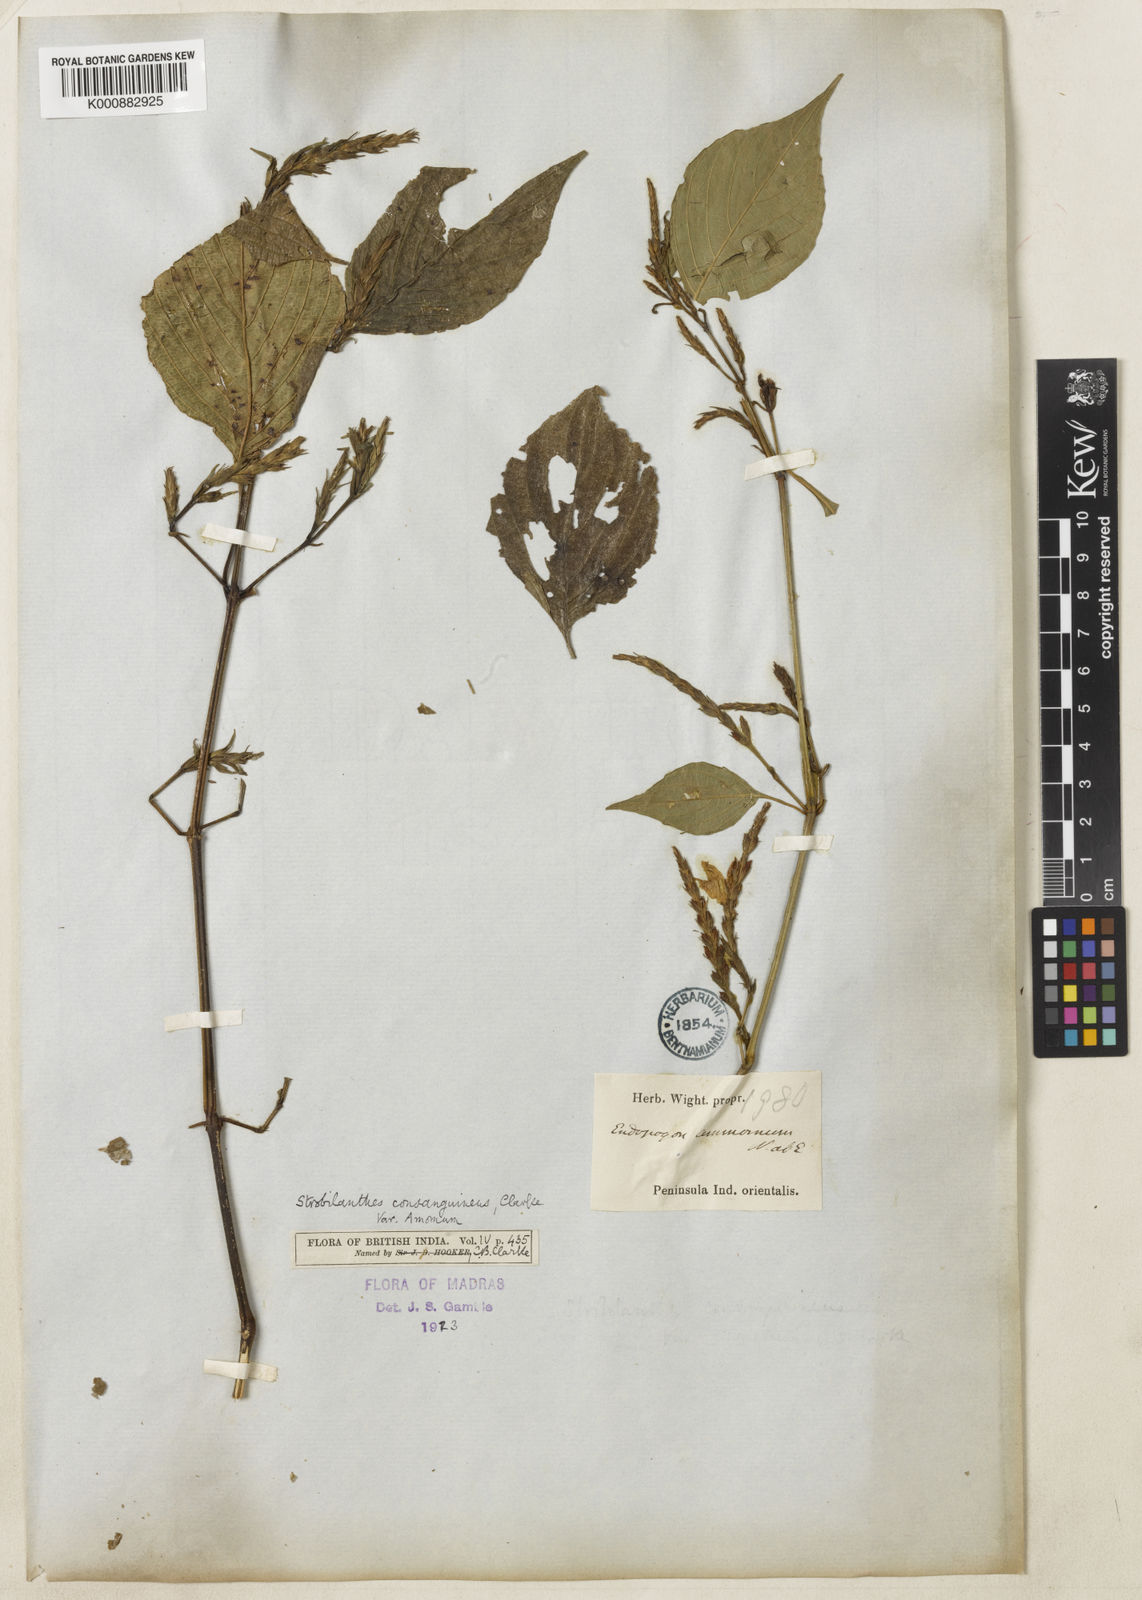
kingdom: Plantae
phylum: Tracheophyta
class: Magnoliopsida
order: Lamiales
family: Acanthaceae
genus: Strobilanthes
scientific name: Strobilanthes diandra
